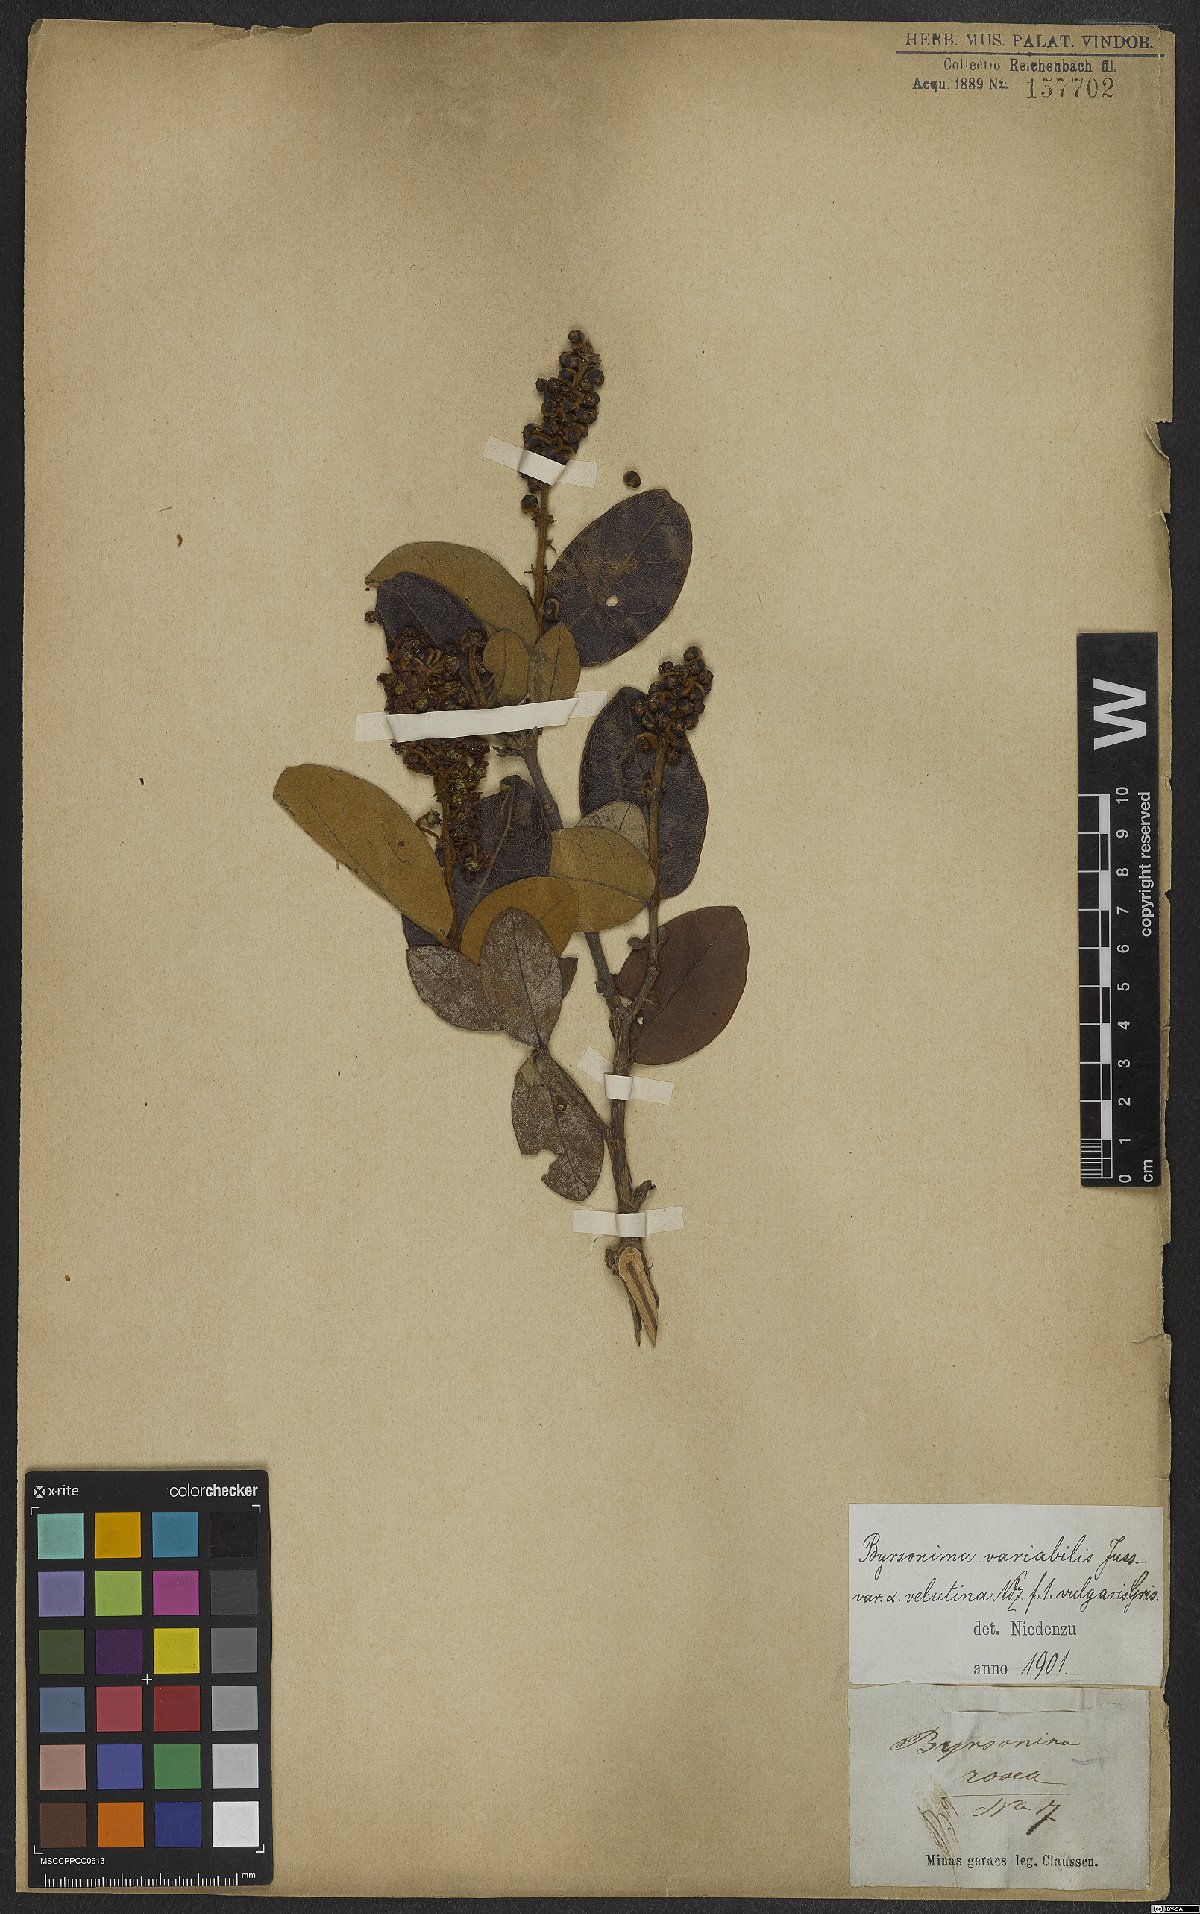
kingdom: Plantae
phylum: Tracheophyta
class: Magnoliopsida
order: Malpighiales
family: Malpighiaceae
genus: Byrsonima
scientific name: Byrsonima variabilis
